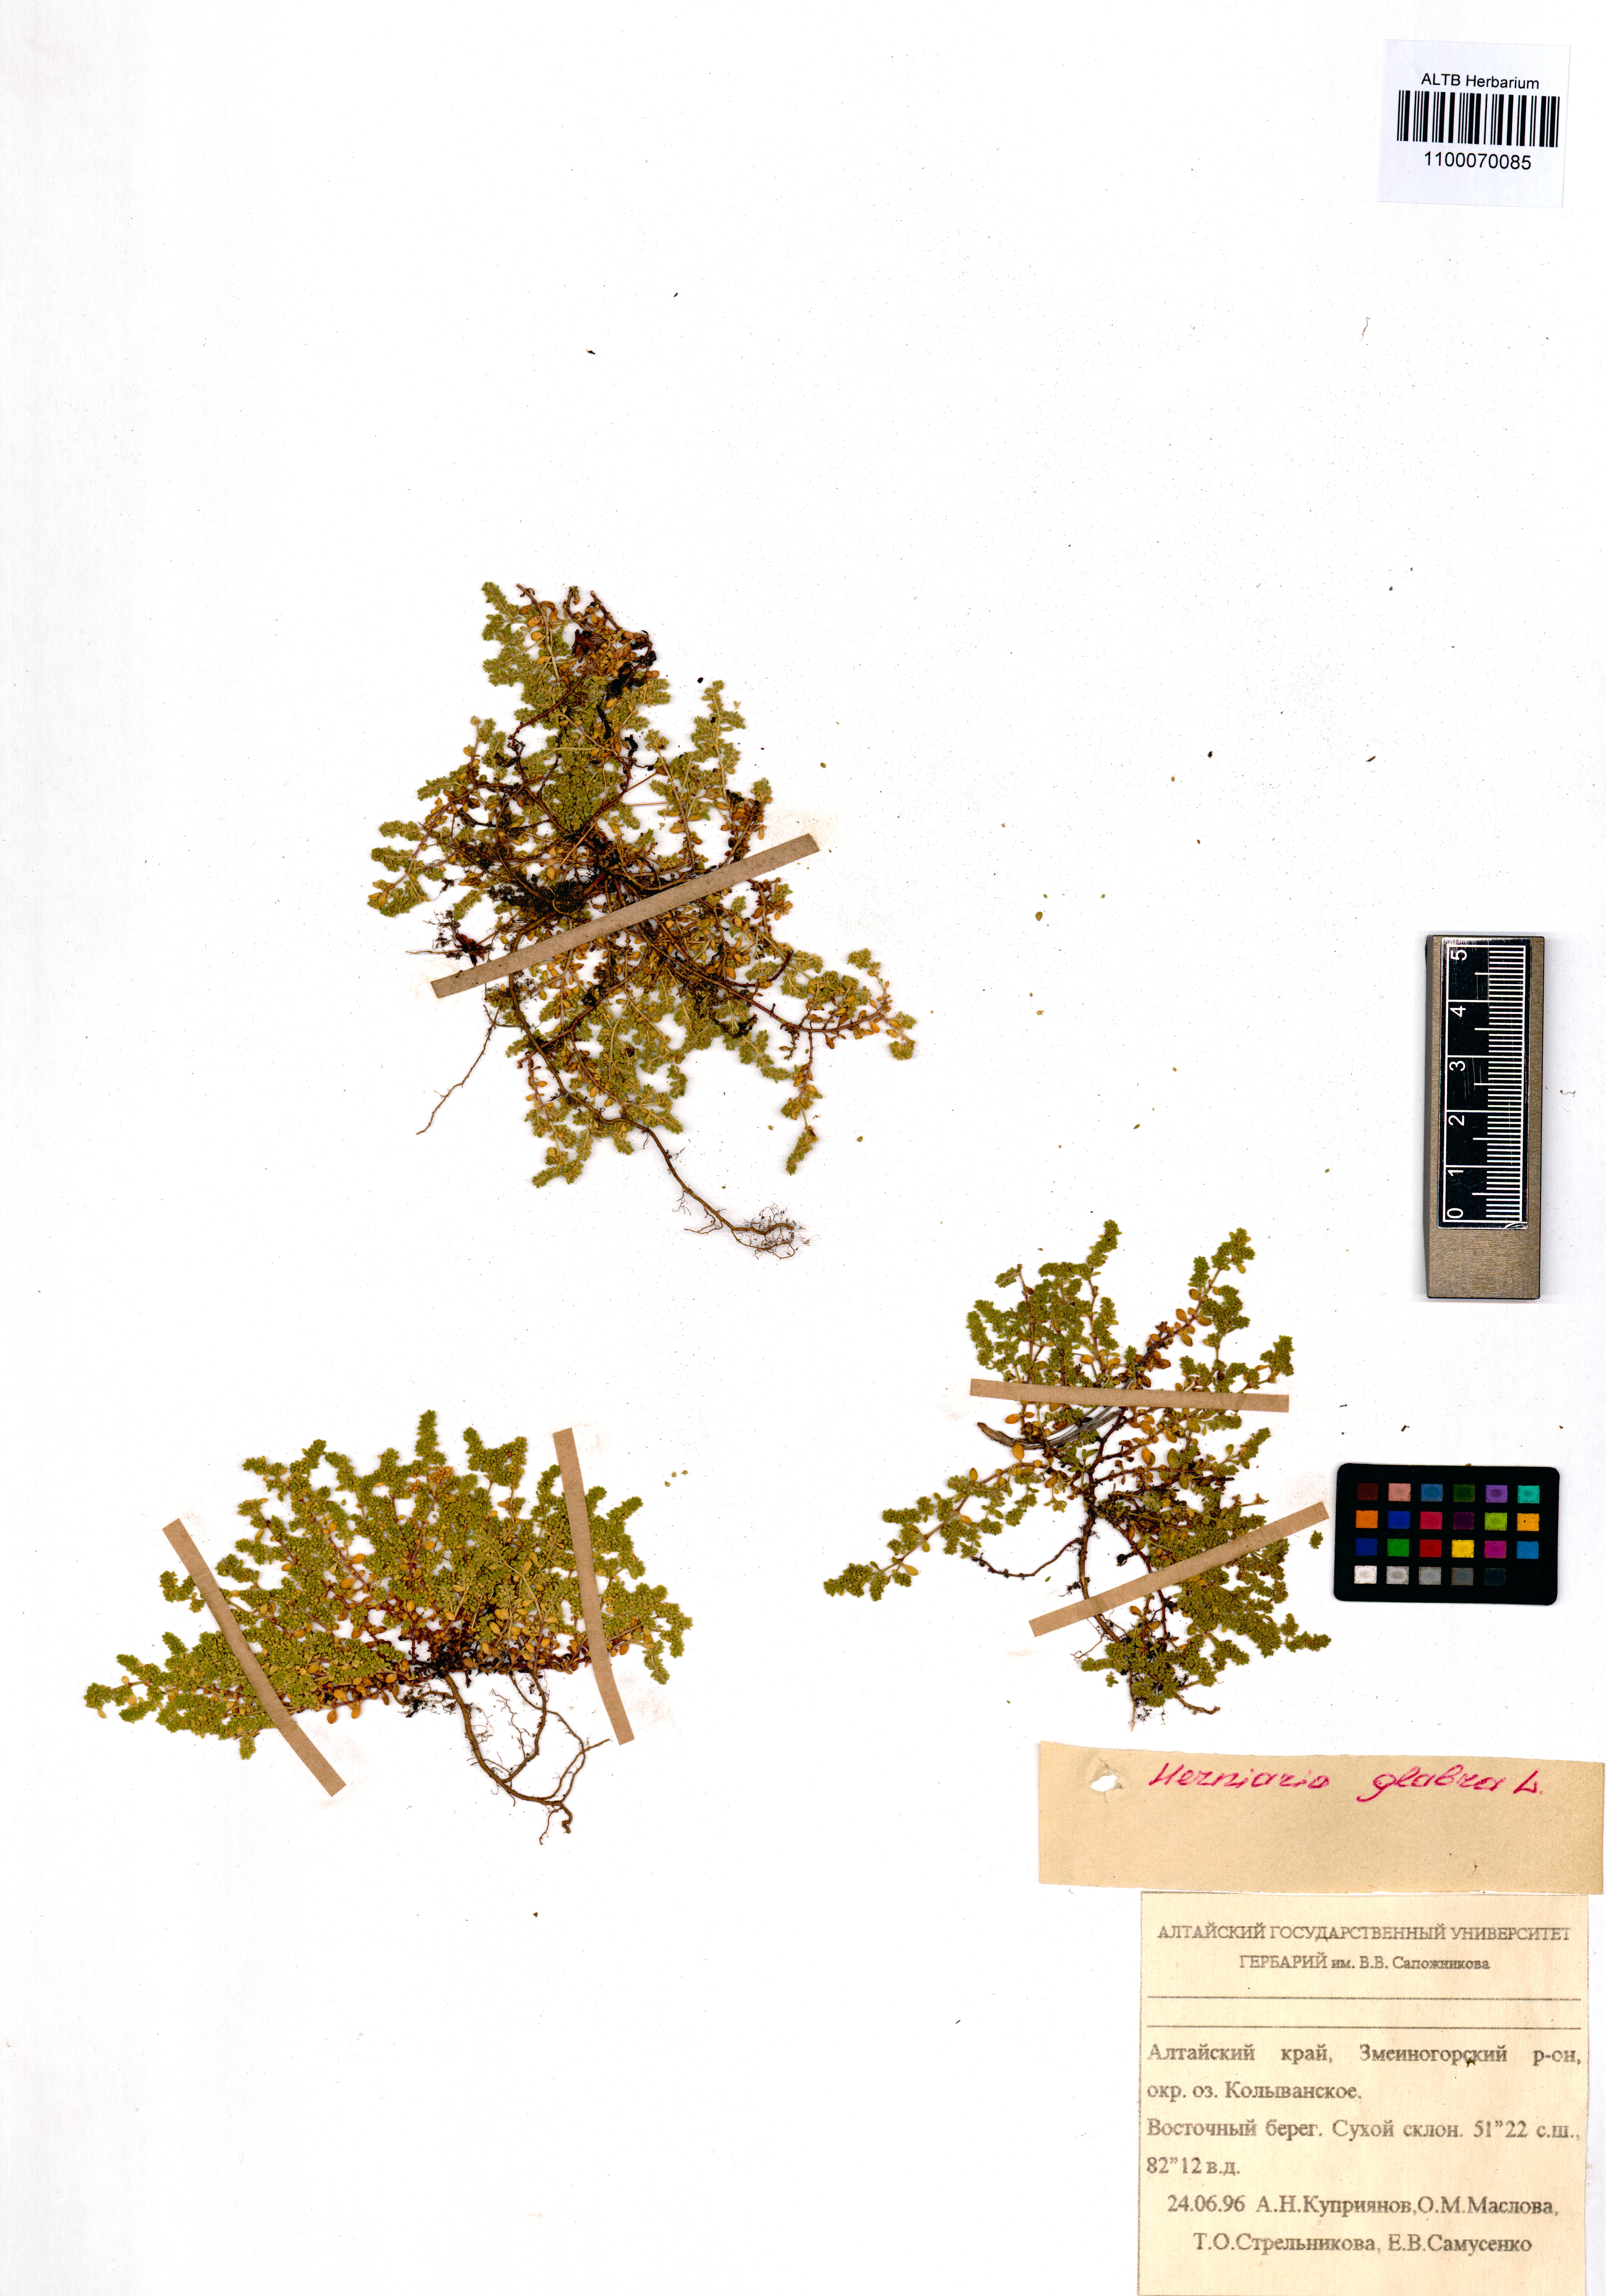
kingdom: Plantae
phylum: Tracheophyta
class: Magnoliopsida
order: Caryophyllales
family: Caryophyllaceae
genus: Herniaria
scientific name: Herniaria glabra
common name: Smooth rupturewort
